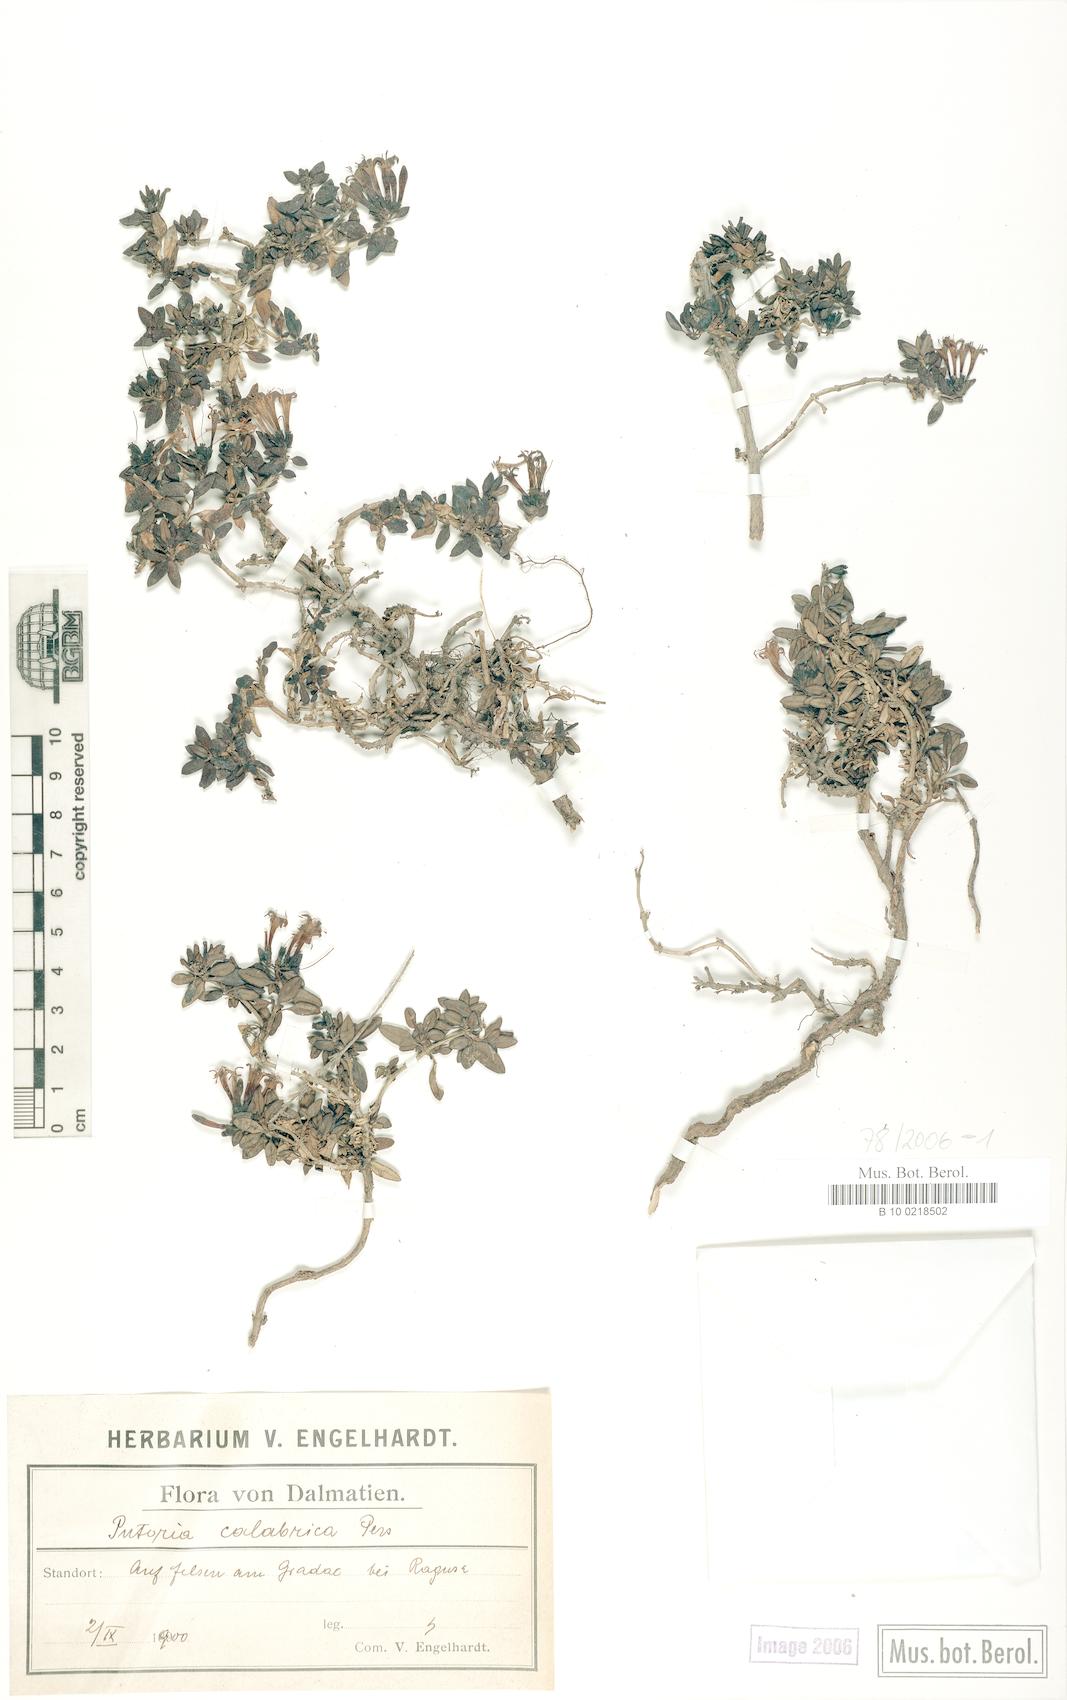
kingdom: Plantae
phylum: Tracheophyta
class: Magnoliopsida
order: Gentianales
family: Rubiaceae
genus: Plocama
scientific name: Plocama calabrica
